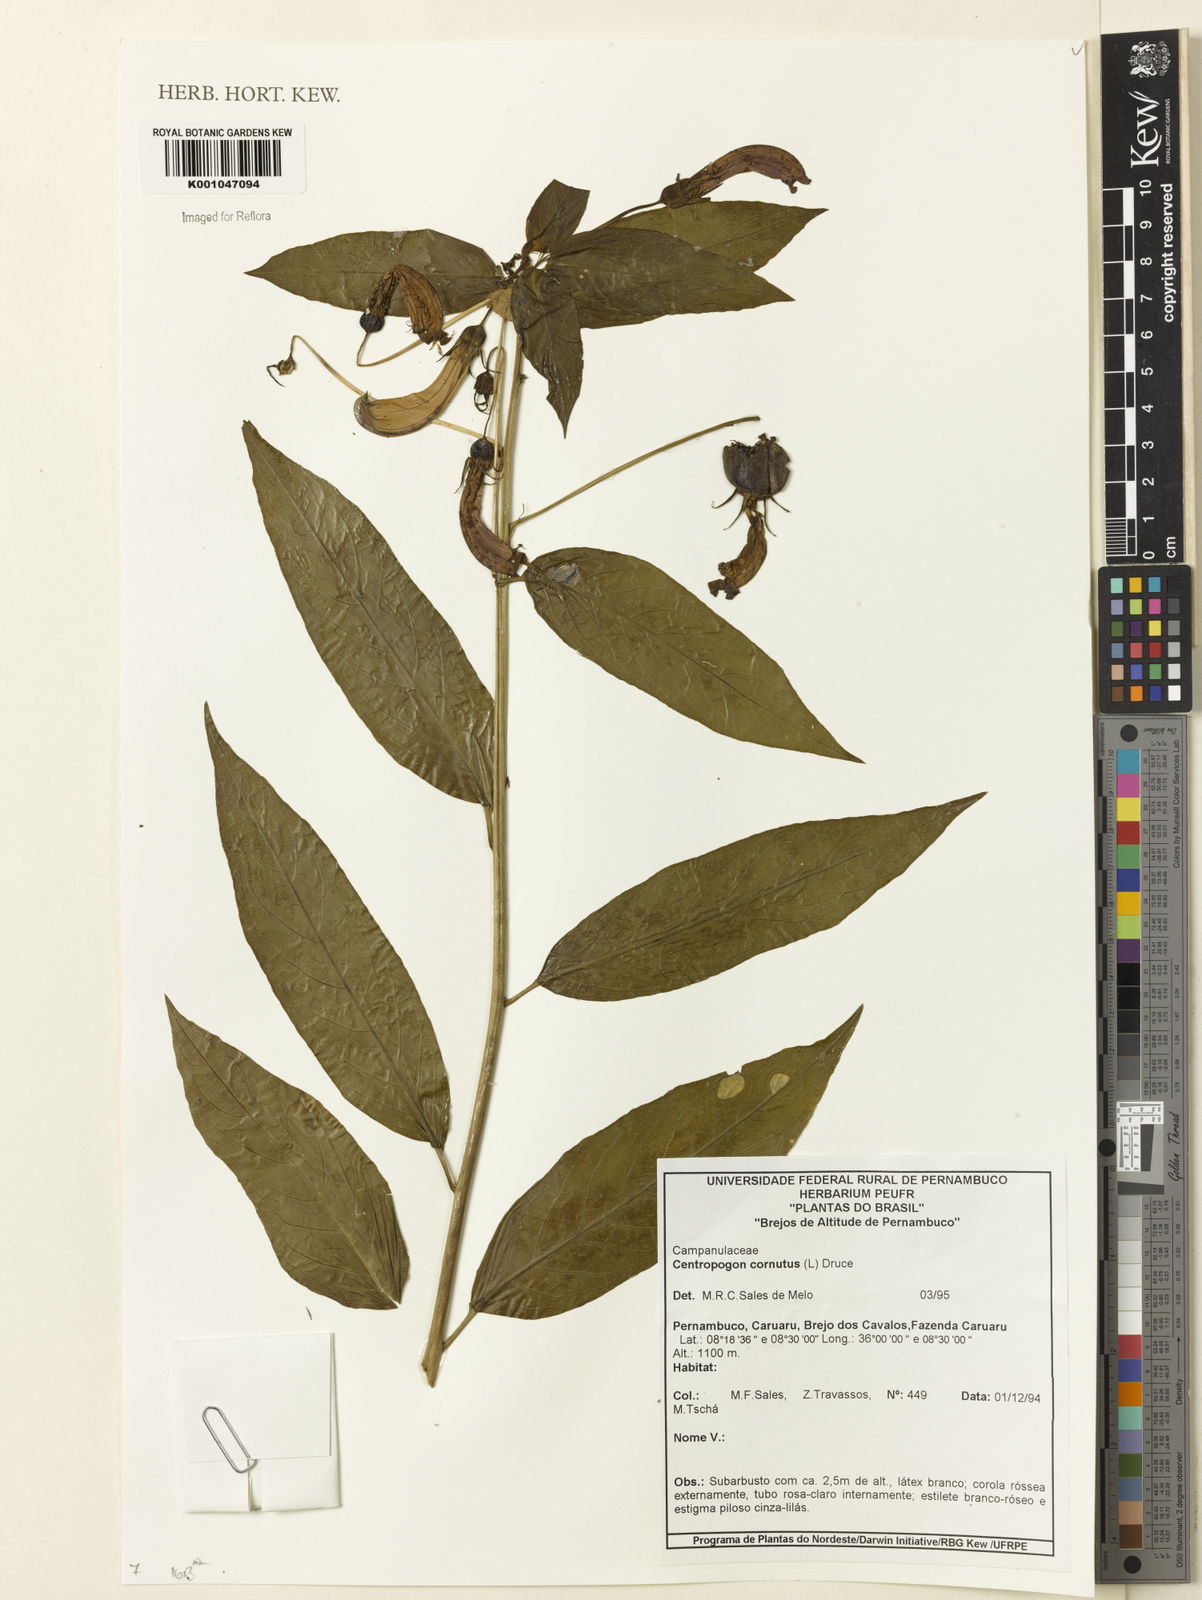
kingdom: Plantae
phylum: Tracheophyta
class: Magnoliopsida
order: Asterales
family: Campanulaceae
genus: Centropogon
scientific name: Centropogon cornutus
